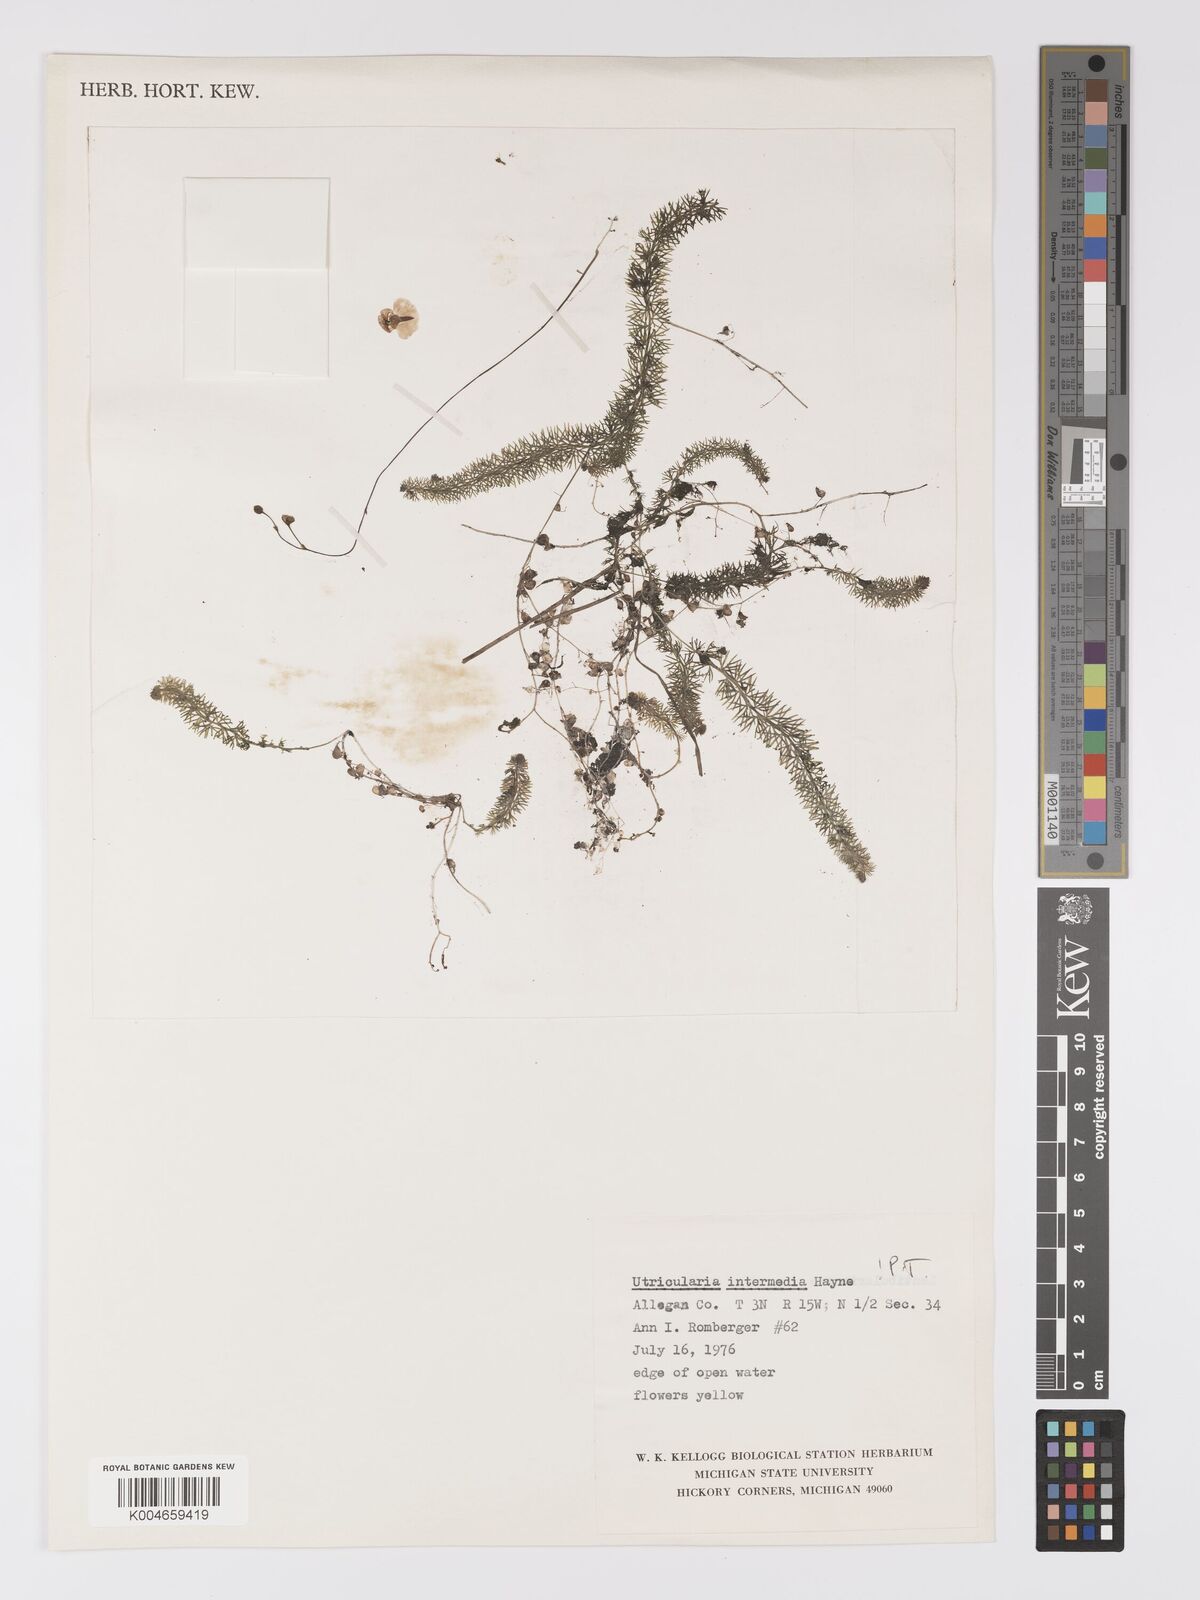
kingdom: Plantae
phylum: Tracheophyta
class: Magnoliopsida
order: Lamiales
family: Lentibulariaceae
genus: Utricularia
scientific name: Utricularia intermedia
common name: Intermediate bladderwort
